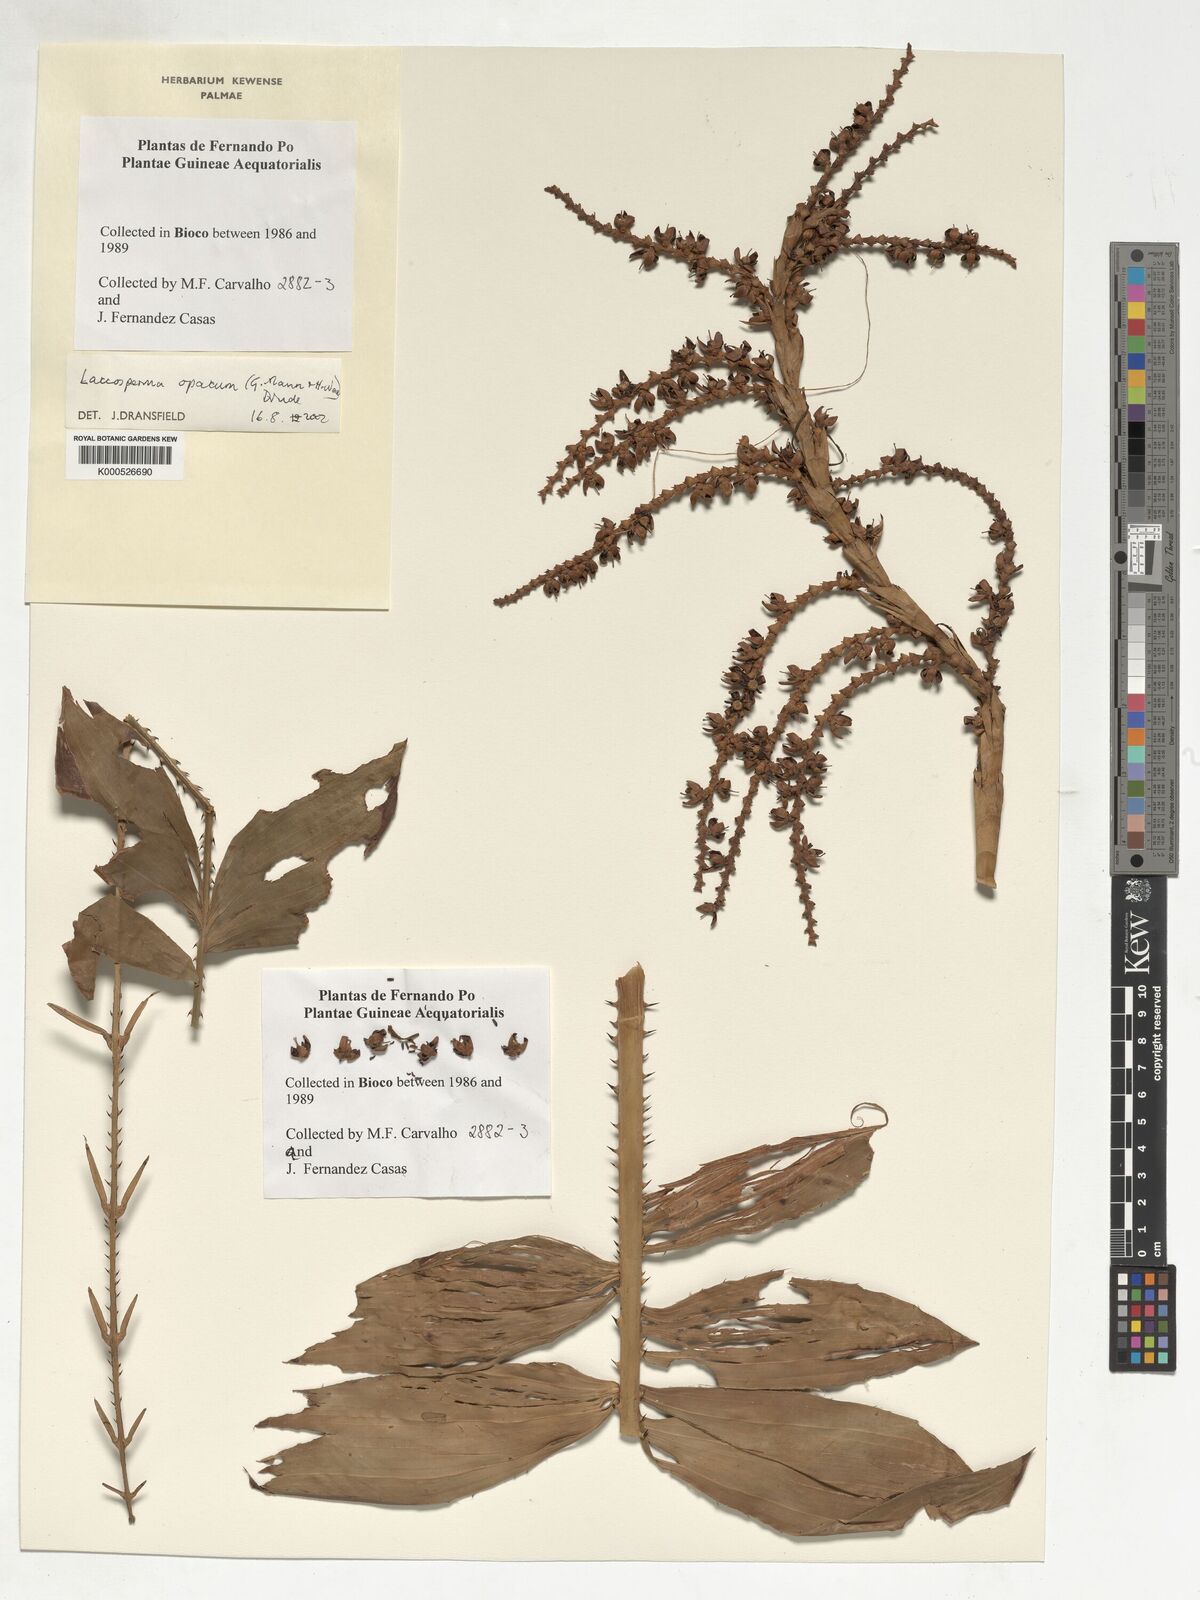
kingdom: Plantae
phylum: Tracheophyta
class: Liliopsida
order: Arecales
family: Arecaceae
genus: Laccosperma
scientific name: Laccosperma opacum
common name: Rattan
